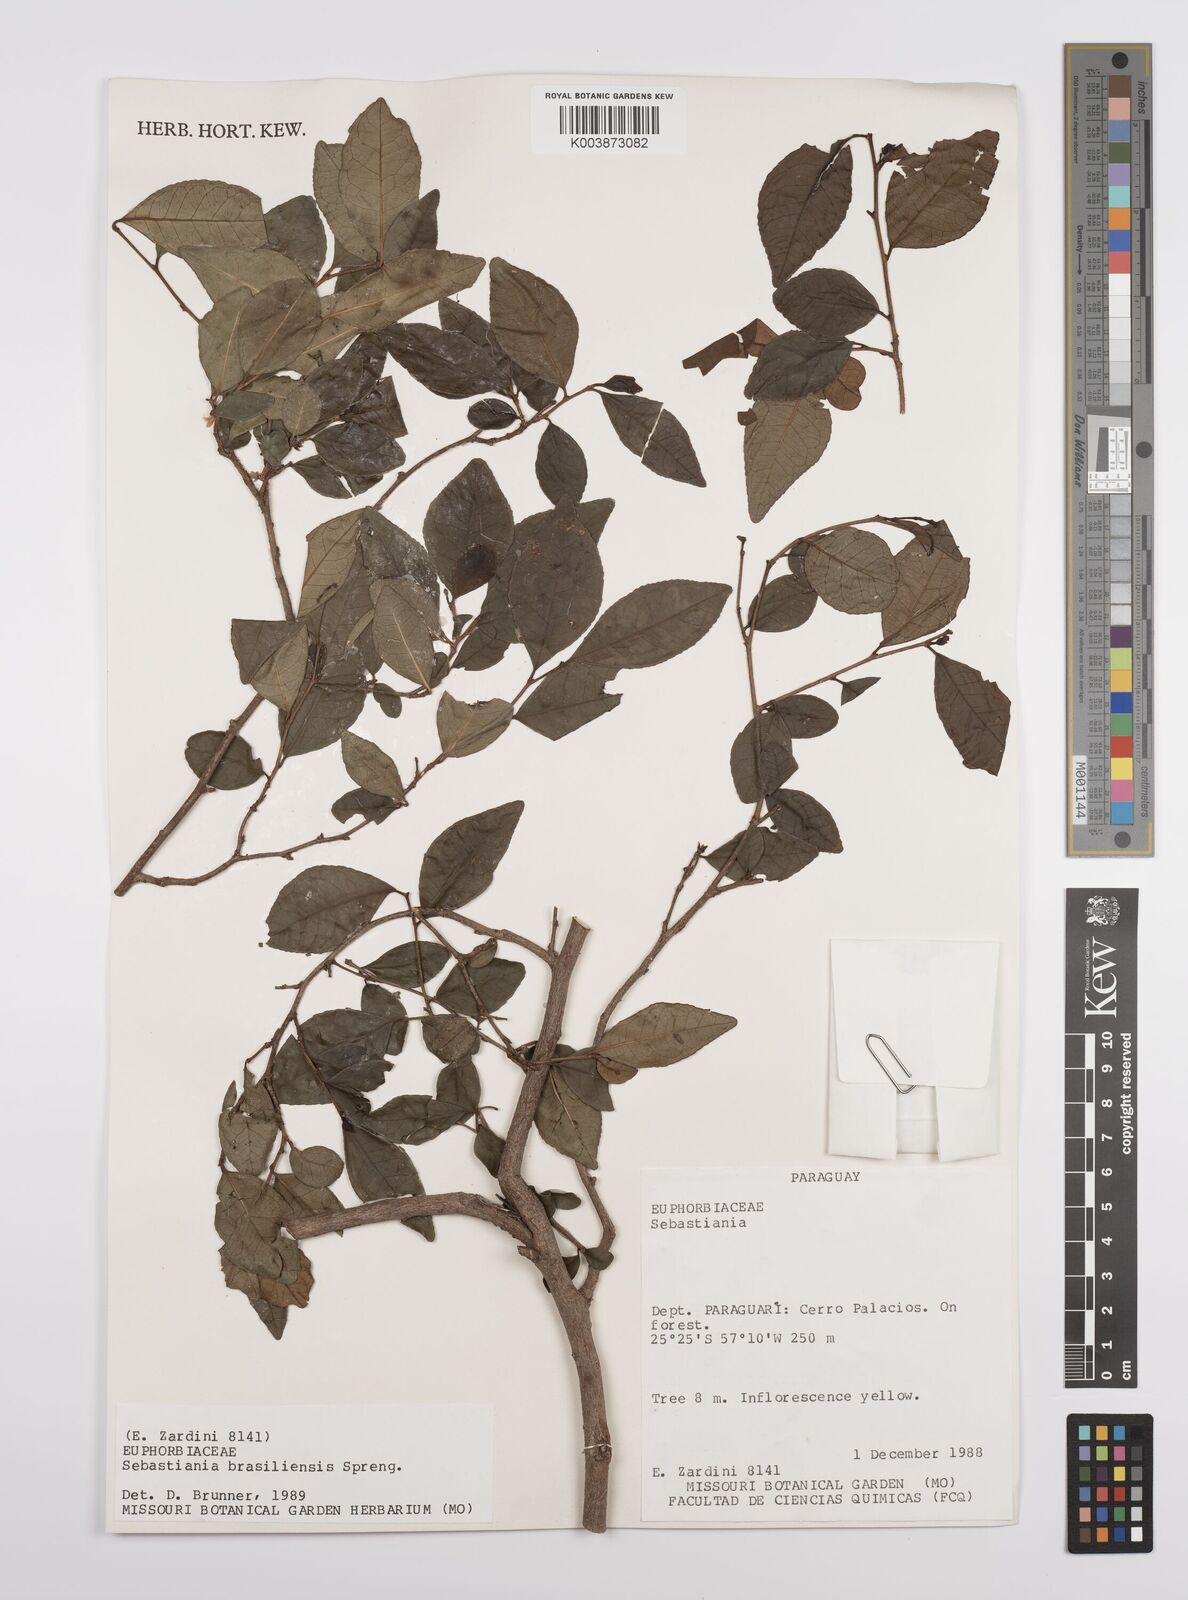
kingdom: Plantae
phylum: Tracheophyta
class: Magnoliopsida
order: Malpighiales
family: Euphorbiaceae
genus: Sebastiania
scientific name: Sebastiania brasiliensis
